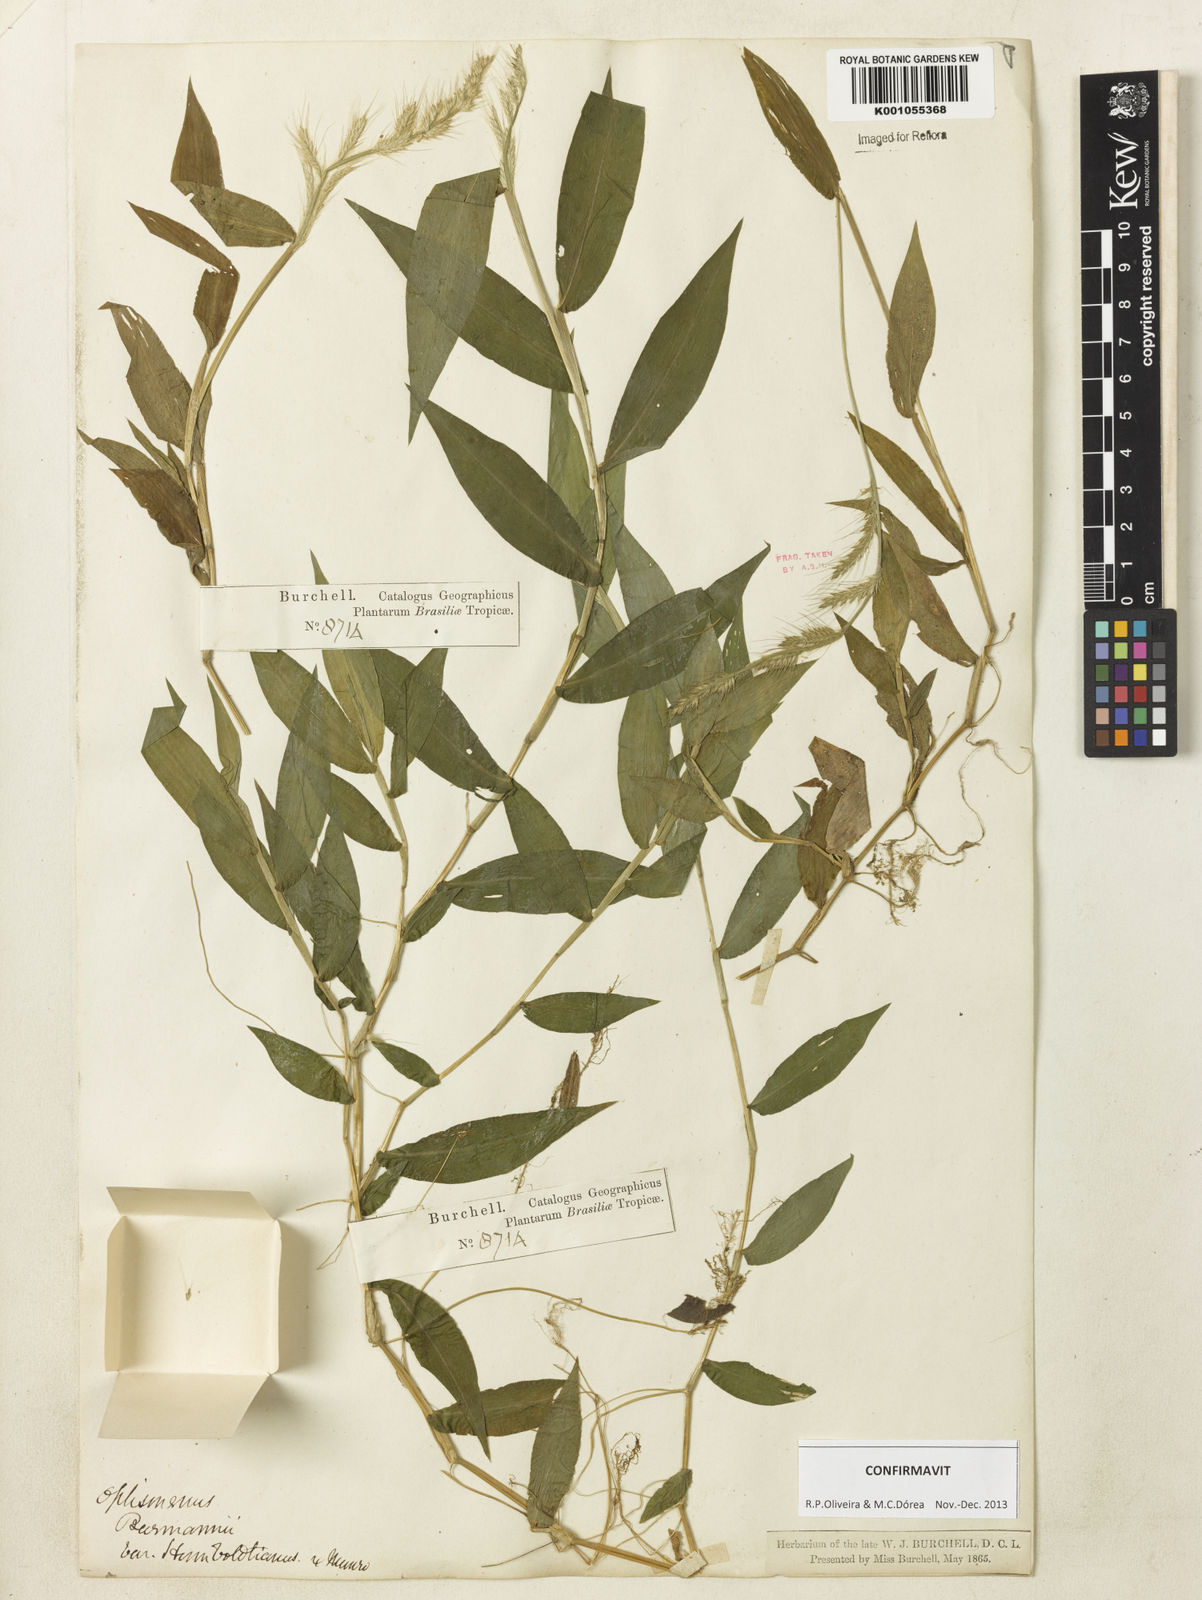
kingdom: Plantae
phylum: Tracheophyta
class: Liliopsida
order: Poales
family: Poaceae
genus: Oplismenus
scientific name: Oplismenus burmanni
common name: Burmann's basketgrass
